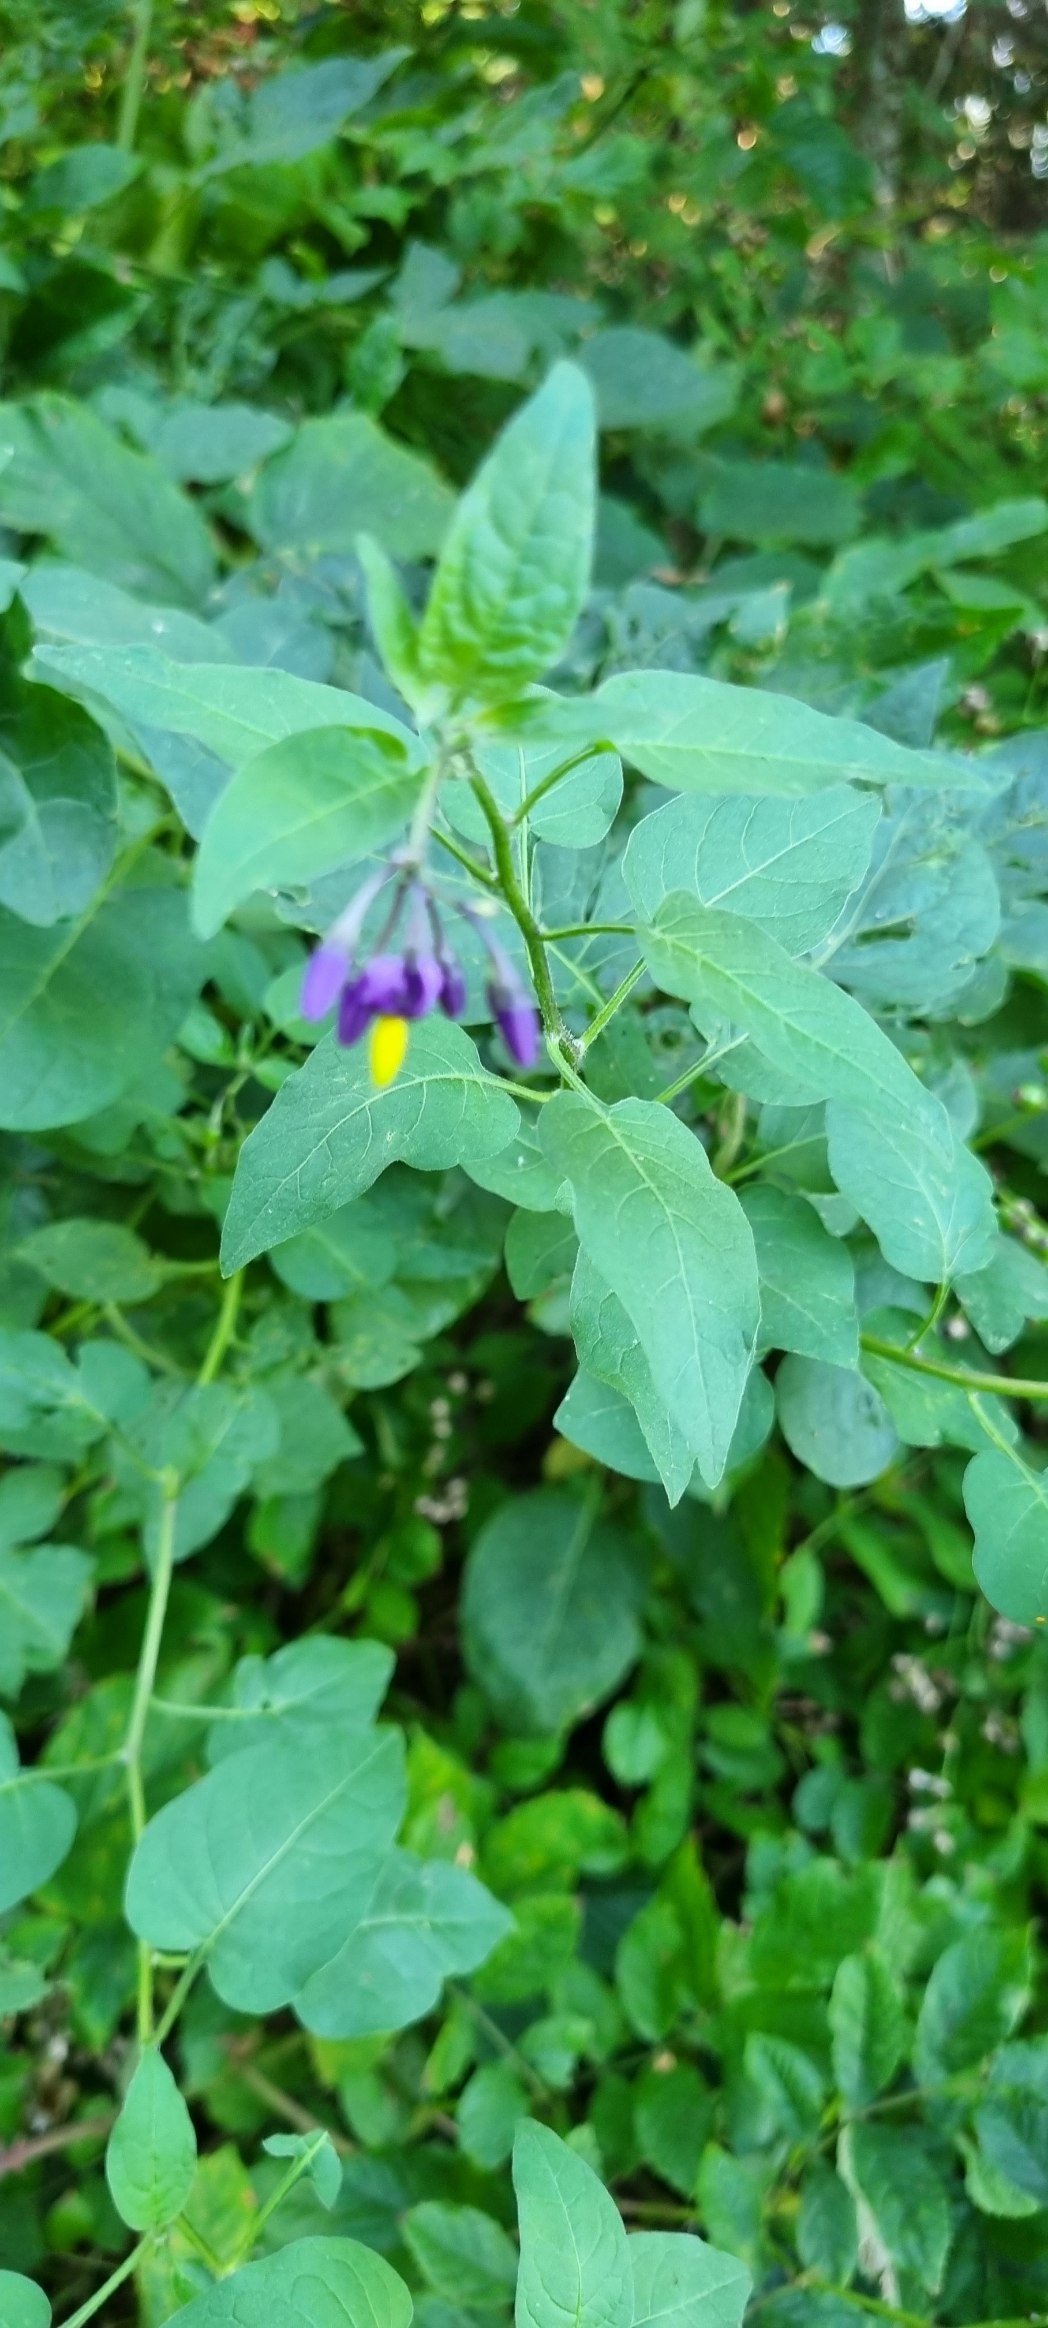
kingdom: Plantae
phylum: Tracheophyta
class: Magnoliopsida
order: Solanales
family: Solanaceae
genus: Solanum
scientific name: Solanum dulcamara
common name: Bittersød natskygge
